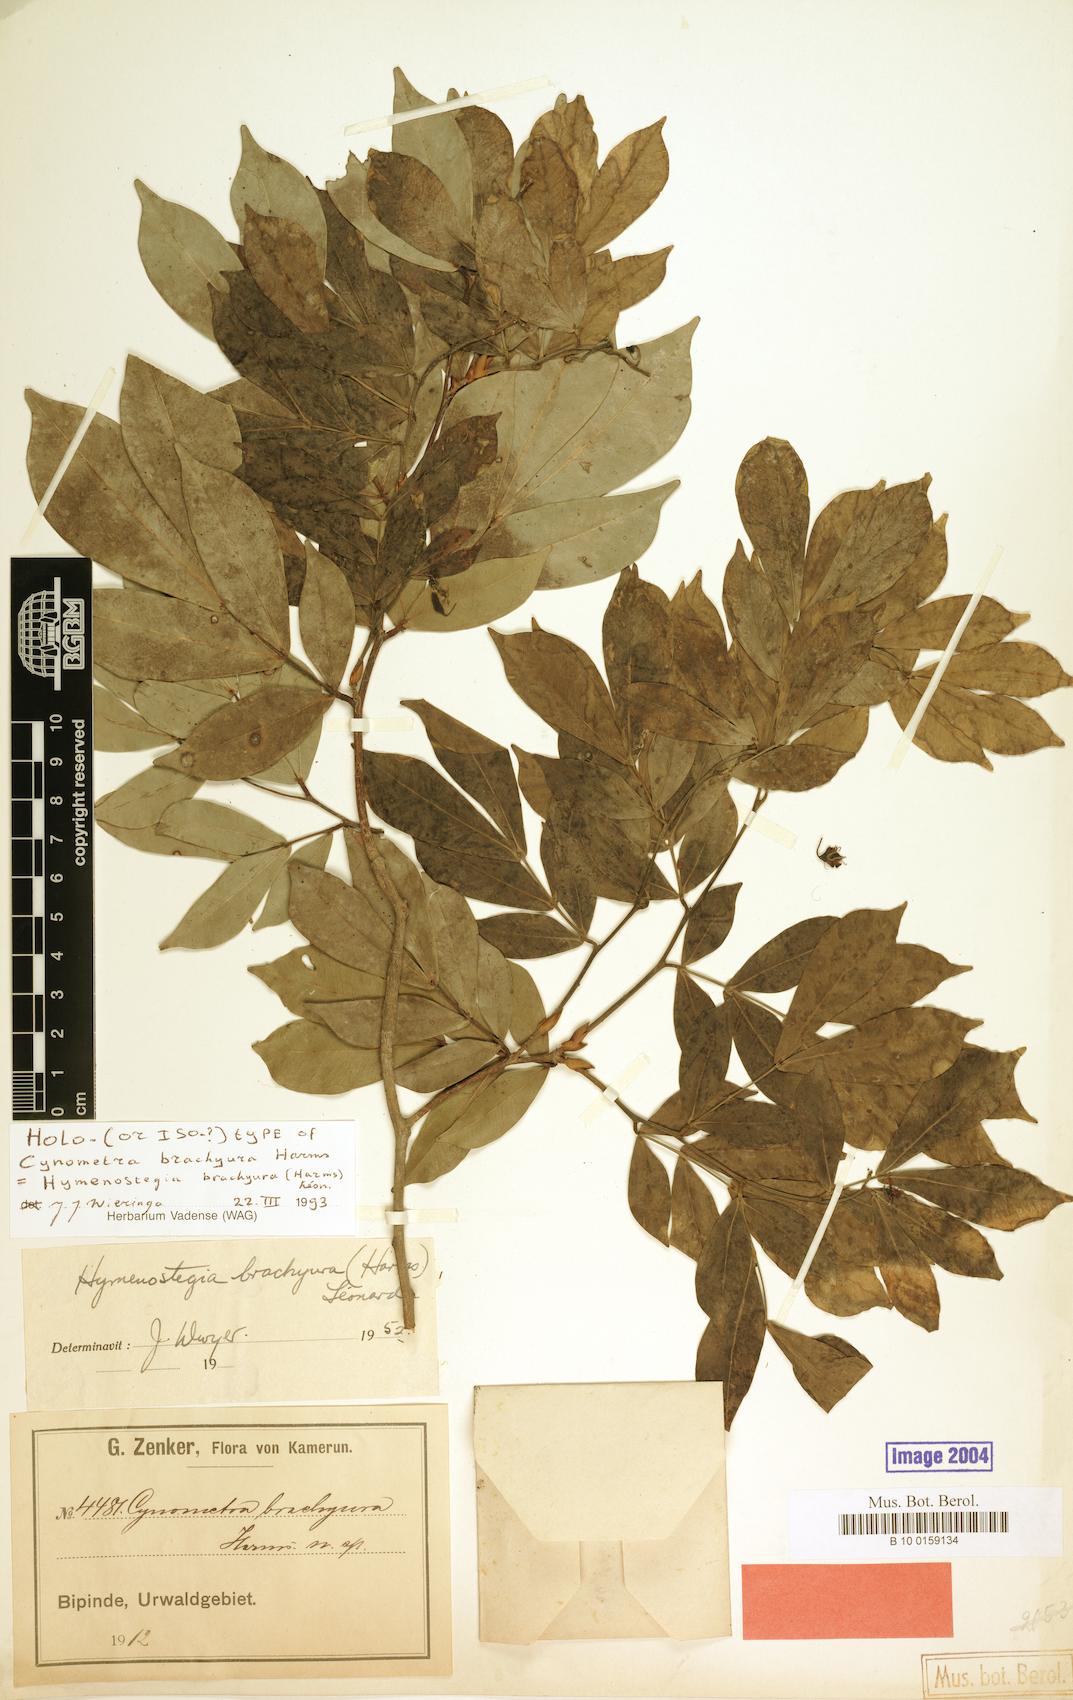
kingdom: Plantae
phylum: Tracheophyta
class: Magnoliopsida
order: Fabales
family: Fabaceae
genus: Hymenostegia
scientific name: Hymenostegia brachyura
